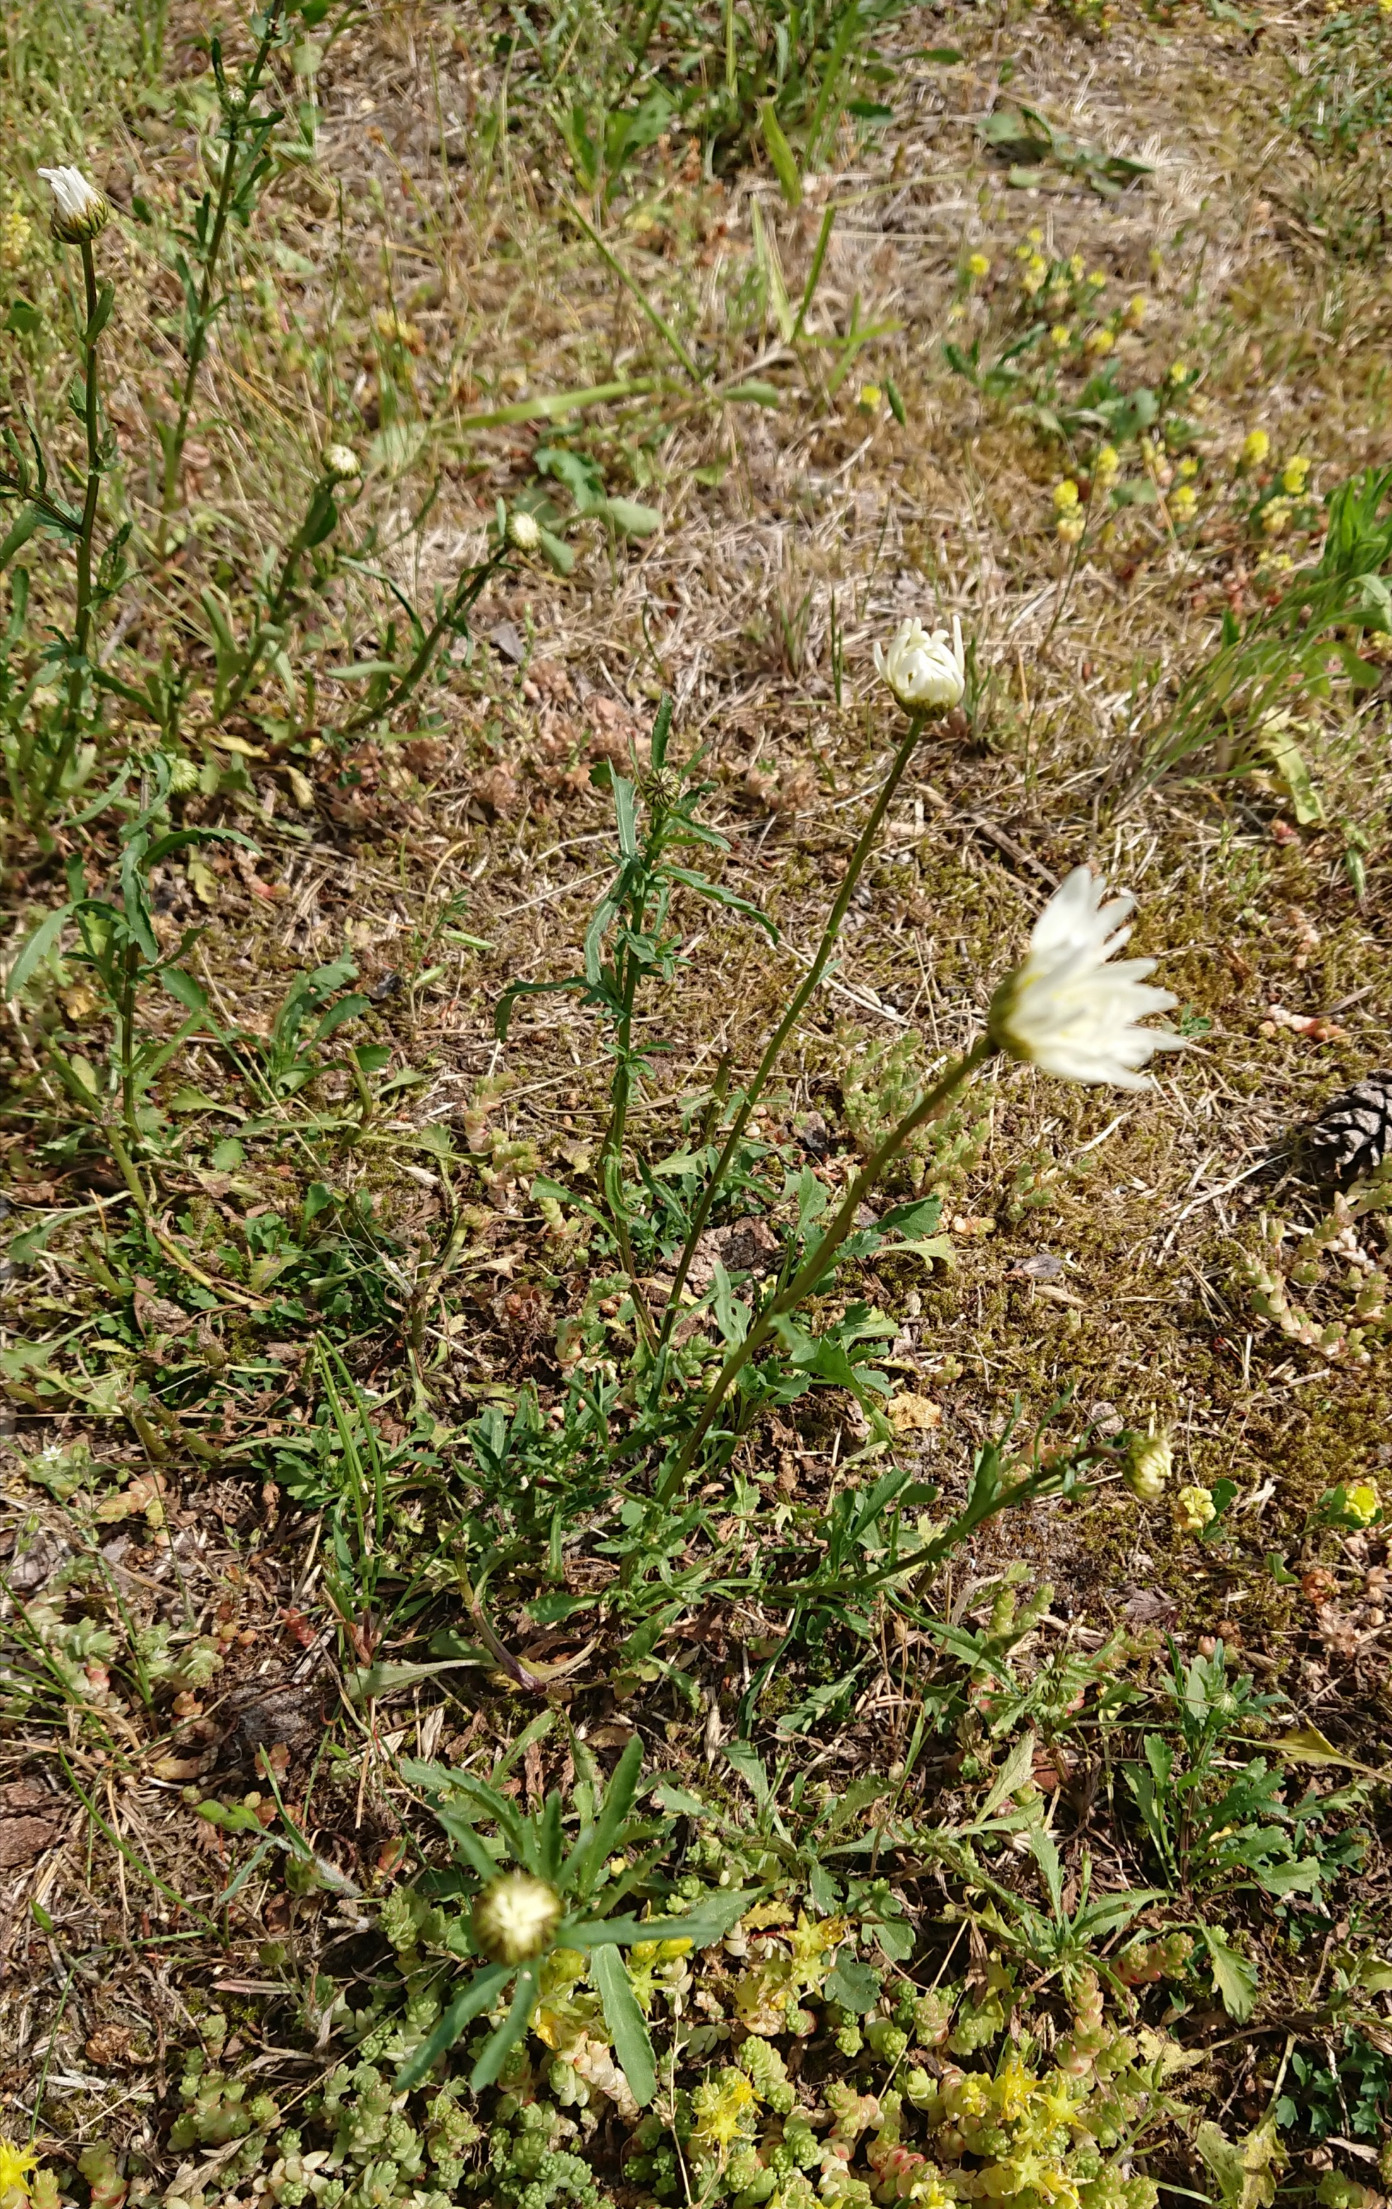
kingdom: Plantae
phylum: Tracheophyta
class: Magnoliopsida
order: Asterales
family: Asteraceae
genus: Leucanthemum
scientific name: Leucanthemum vulgare
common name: Hvid okseøje
